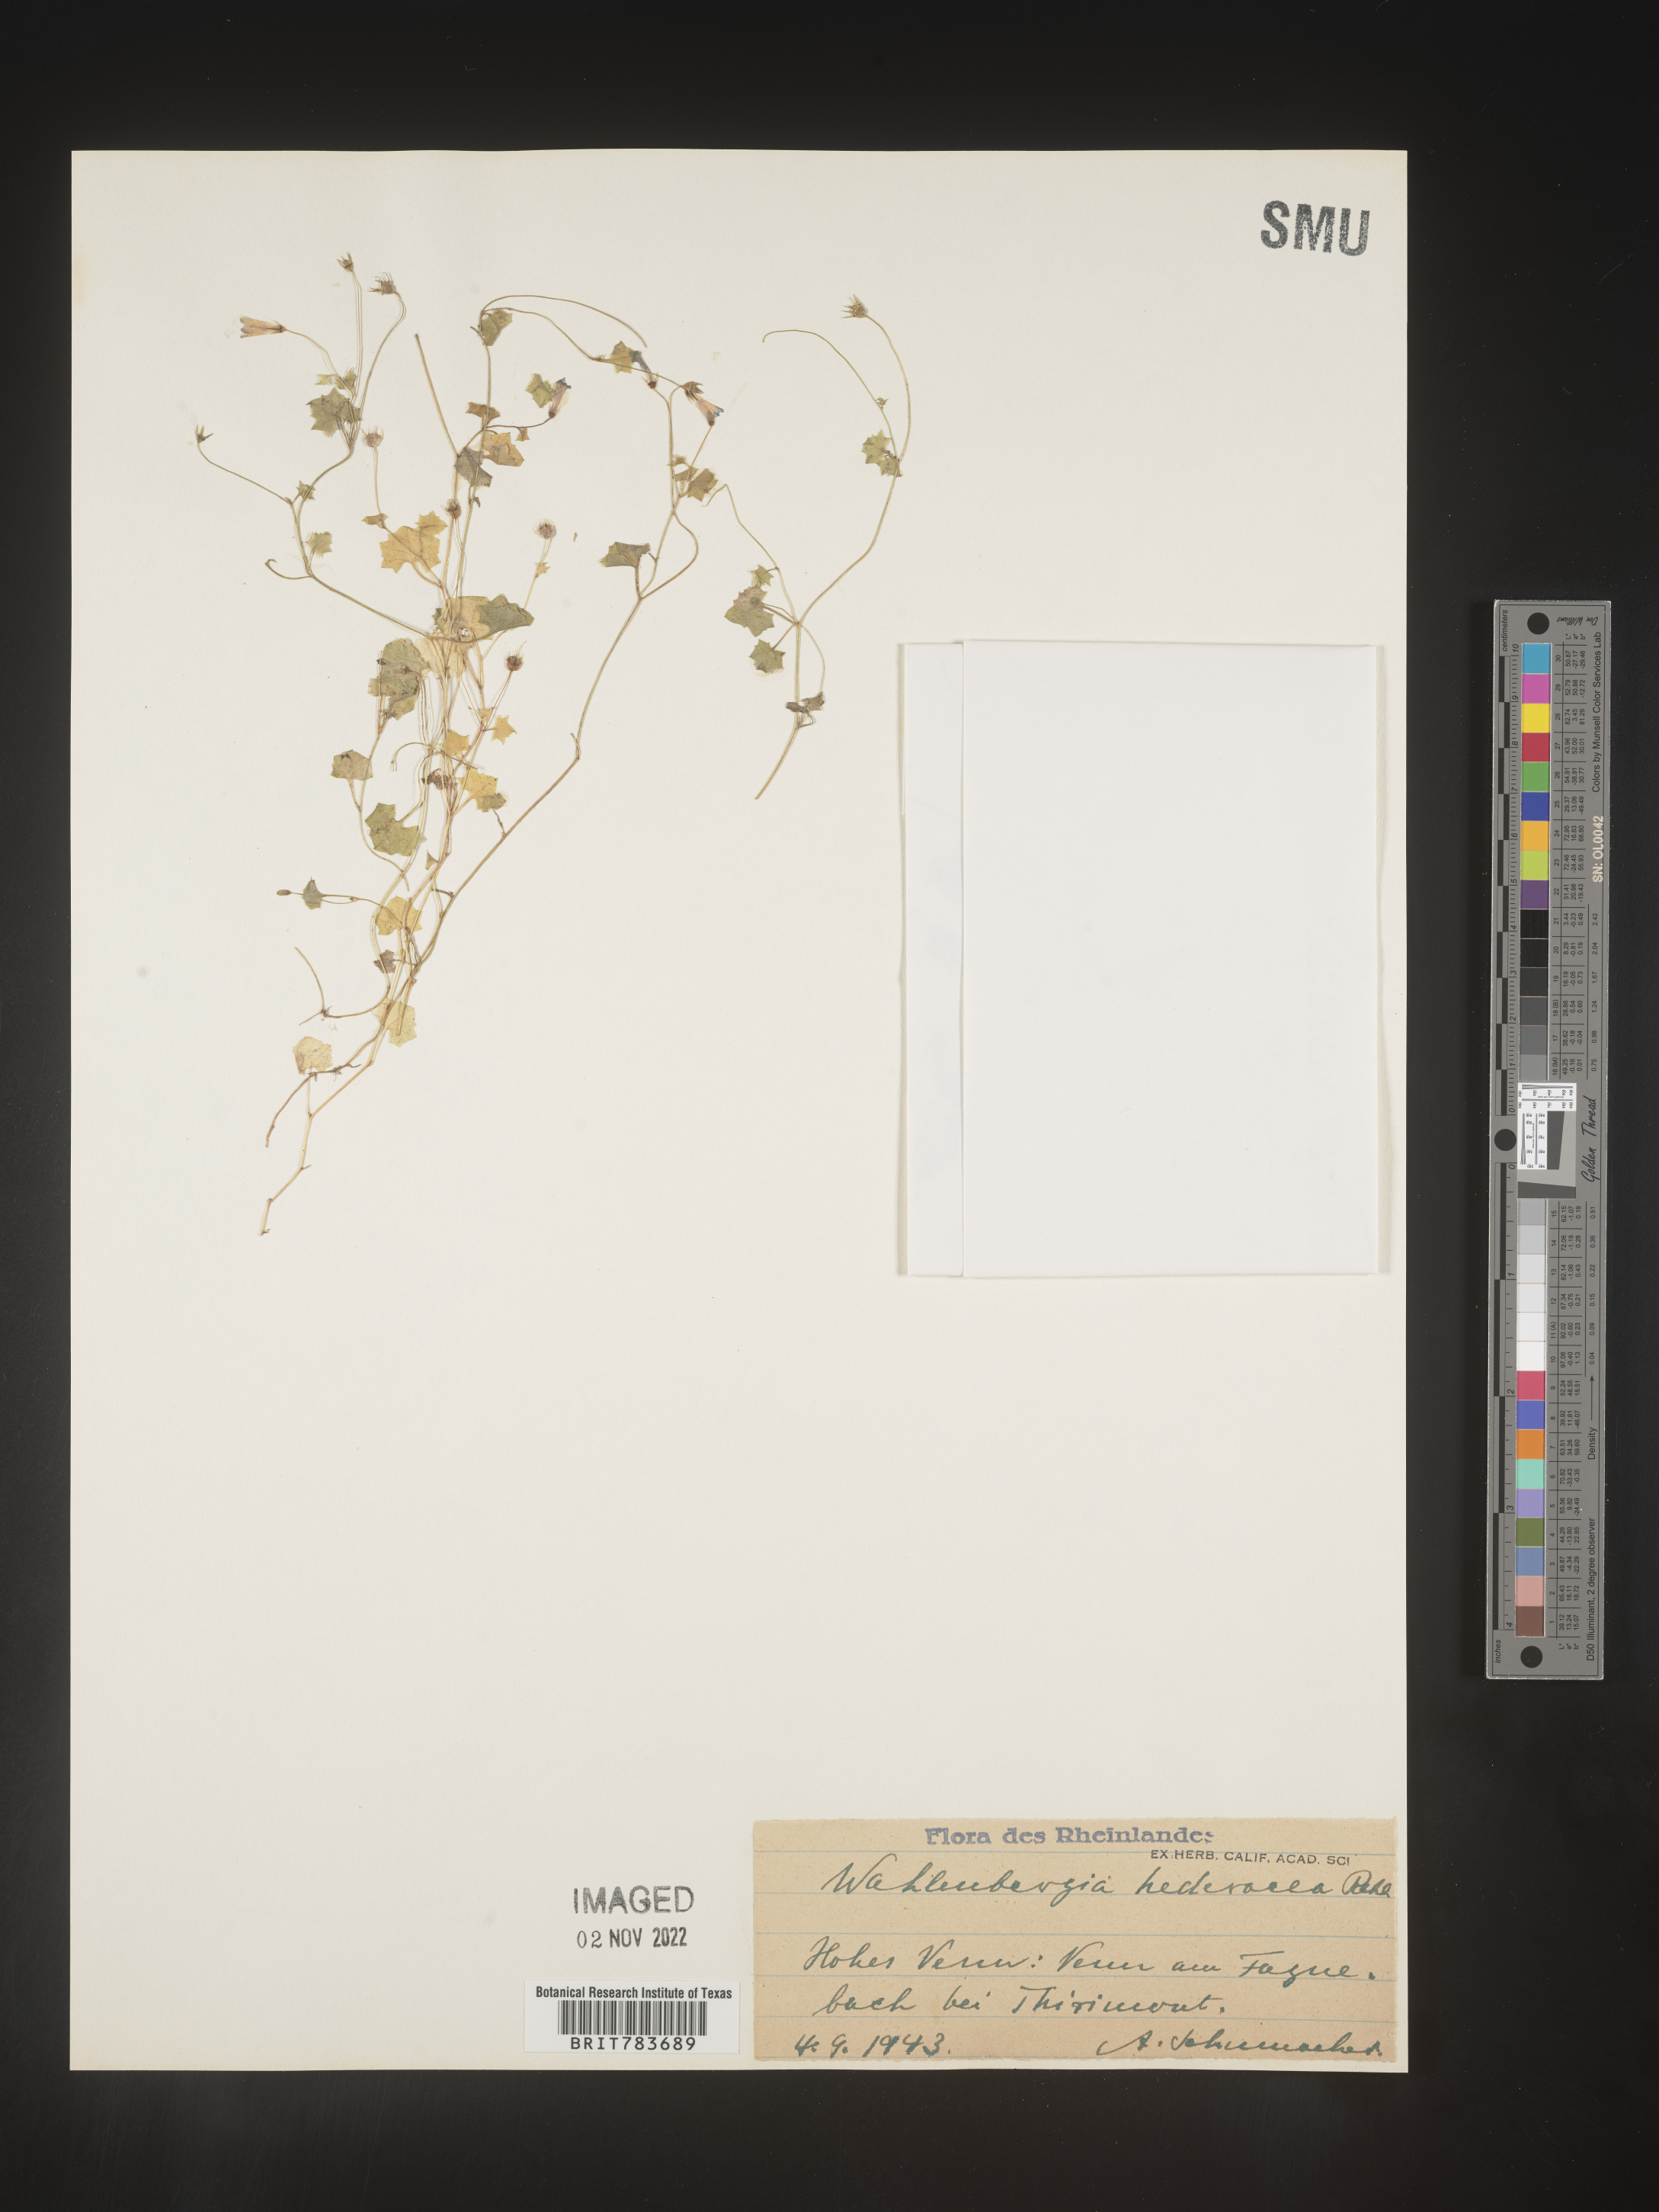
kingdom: Plantae
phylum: Tracheophyta
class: Magnoliopsida
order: Asterales
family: Campanulaceae
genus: Wahlenbergia
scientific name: Wahlenbergia
